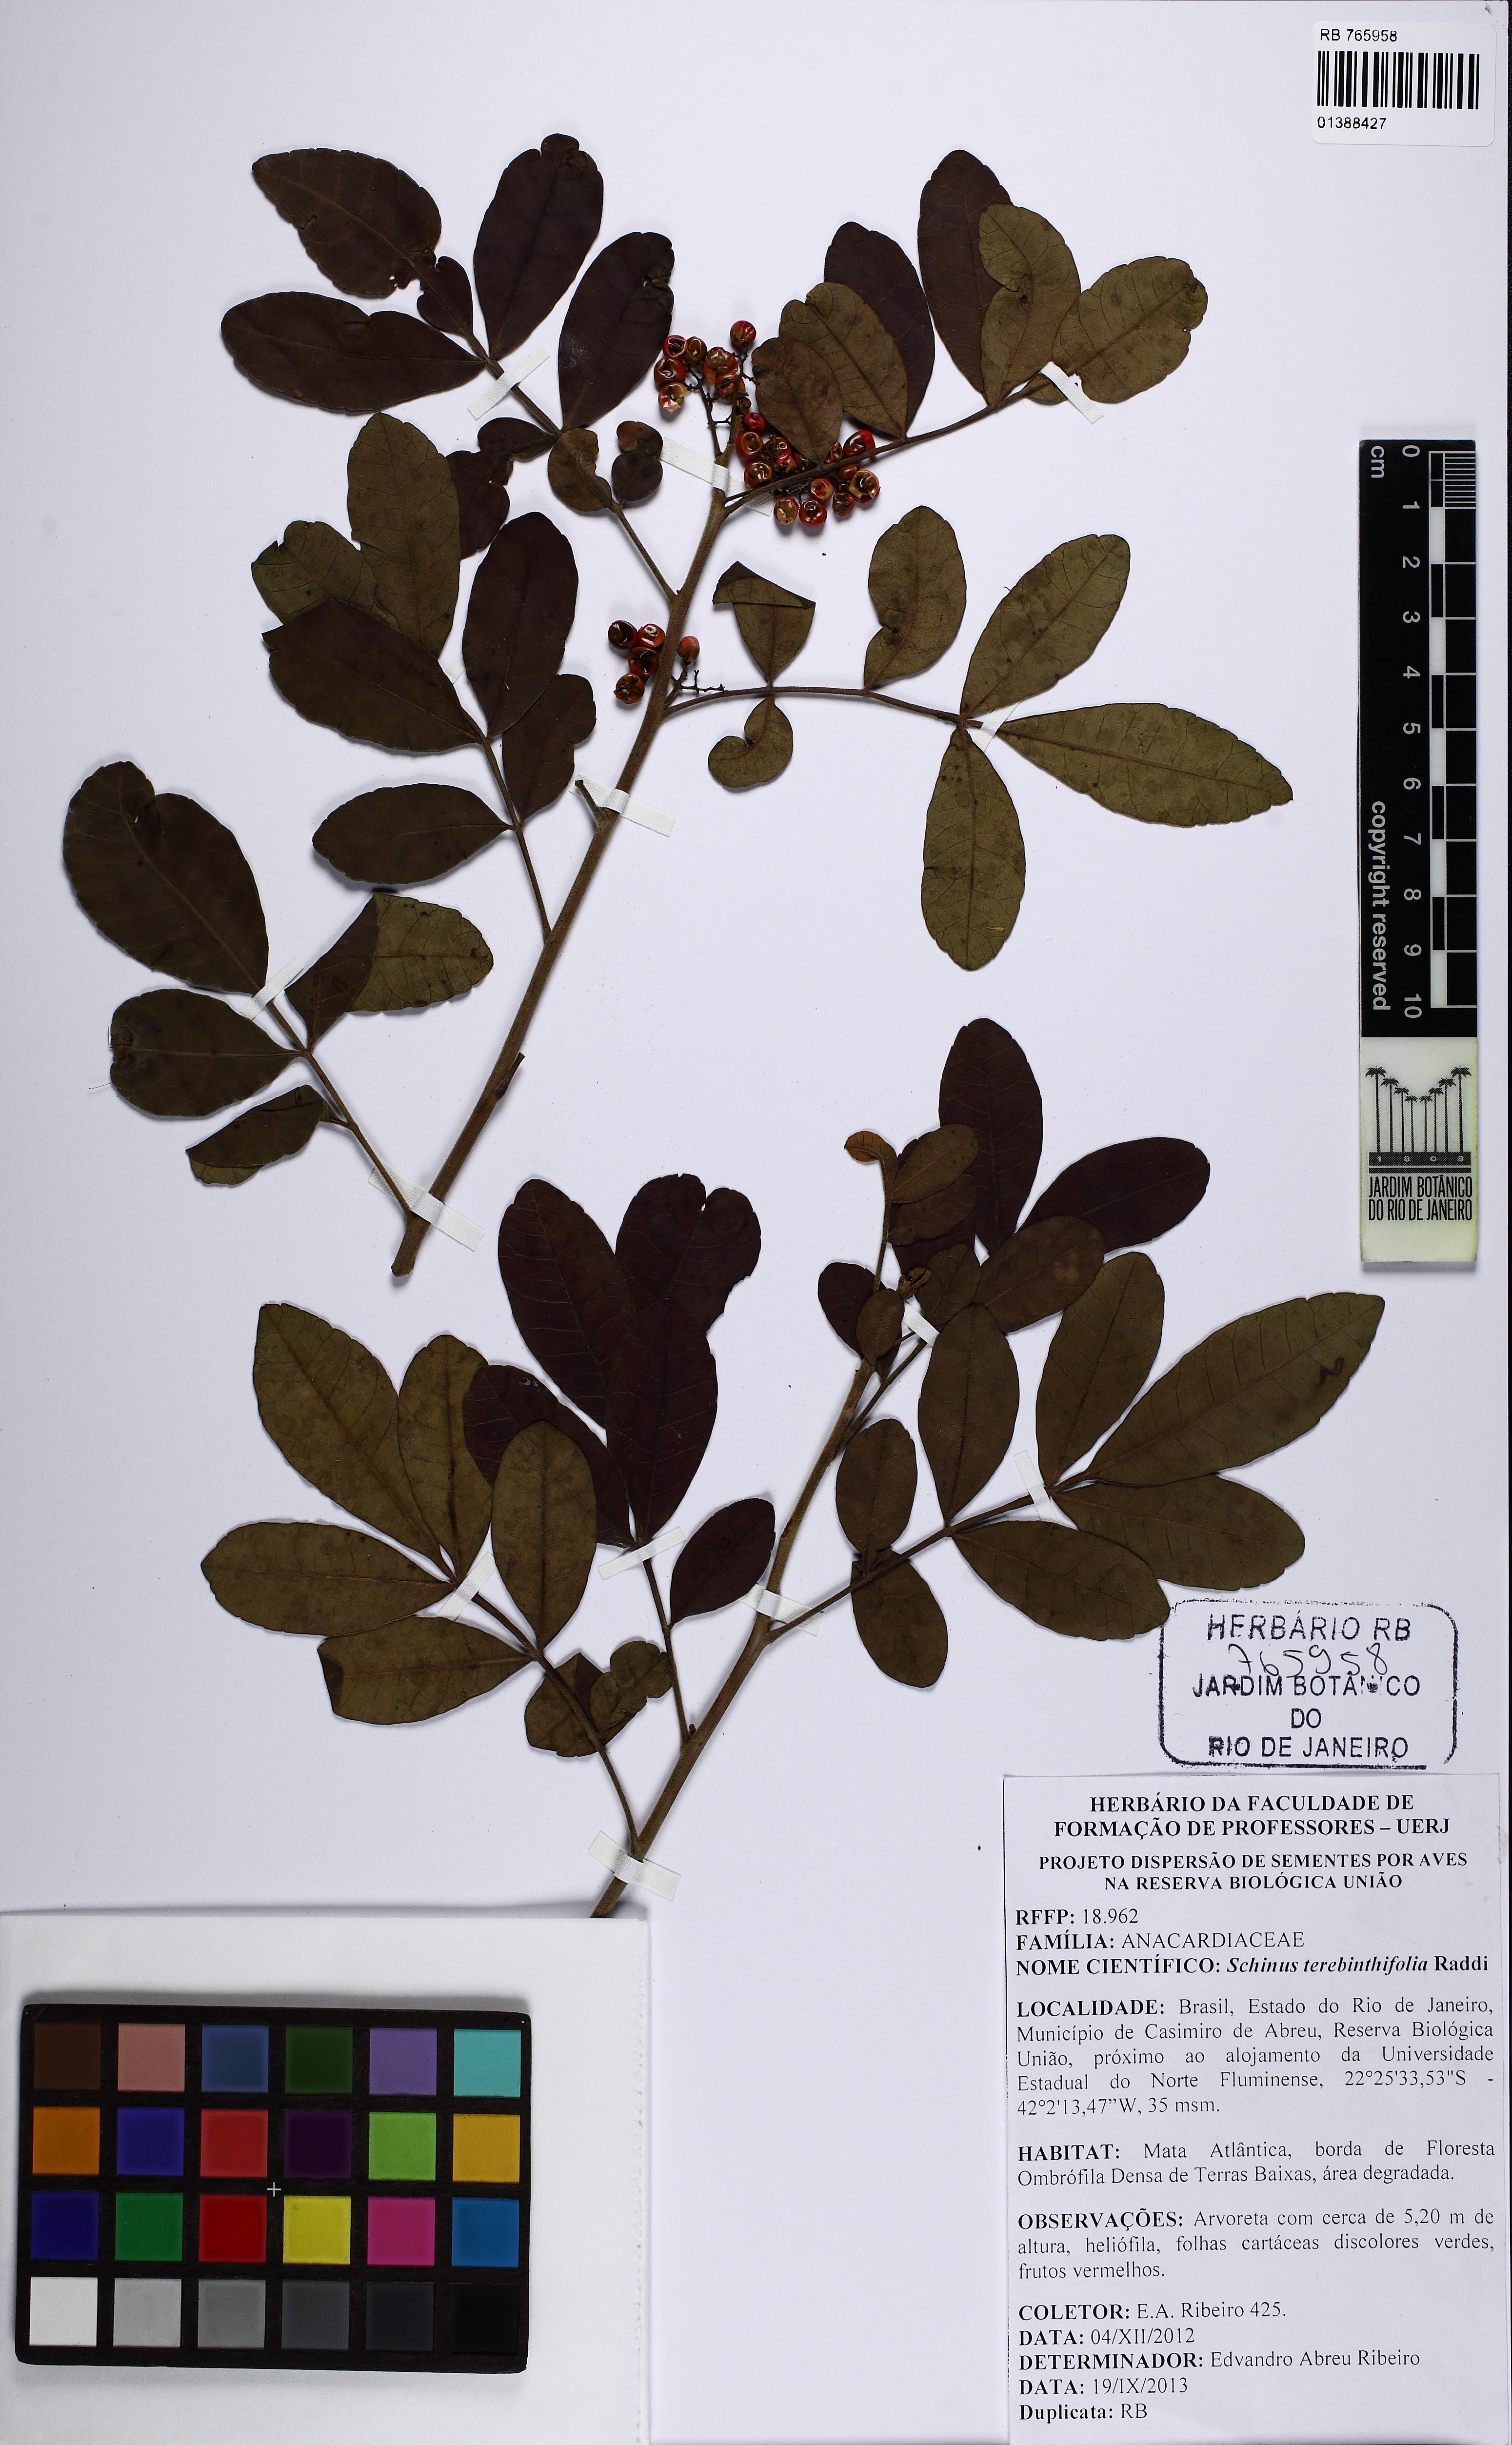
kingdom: Plantae
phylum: Tracheophyta
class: Magnoliopsida
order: Sapindales
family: Anacardiaceae
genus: Schinus
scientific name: Schinus terebinthifolia
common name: Brazilian peppertree
